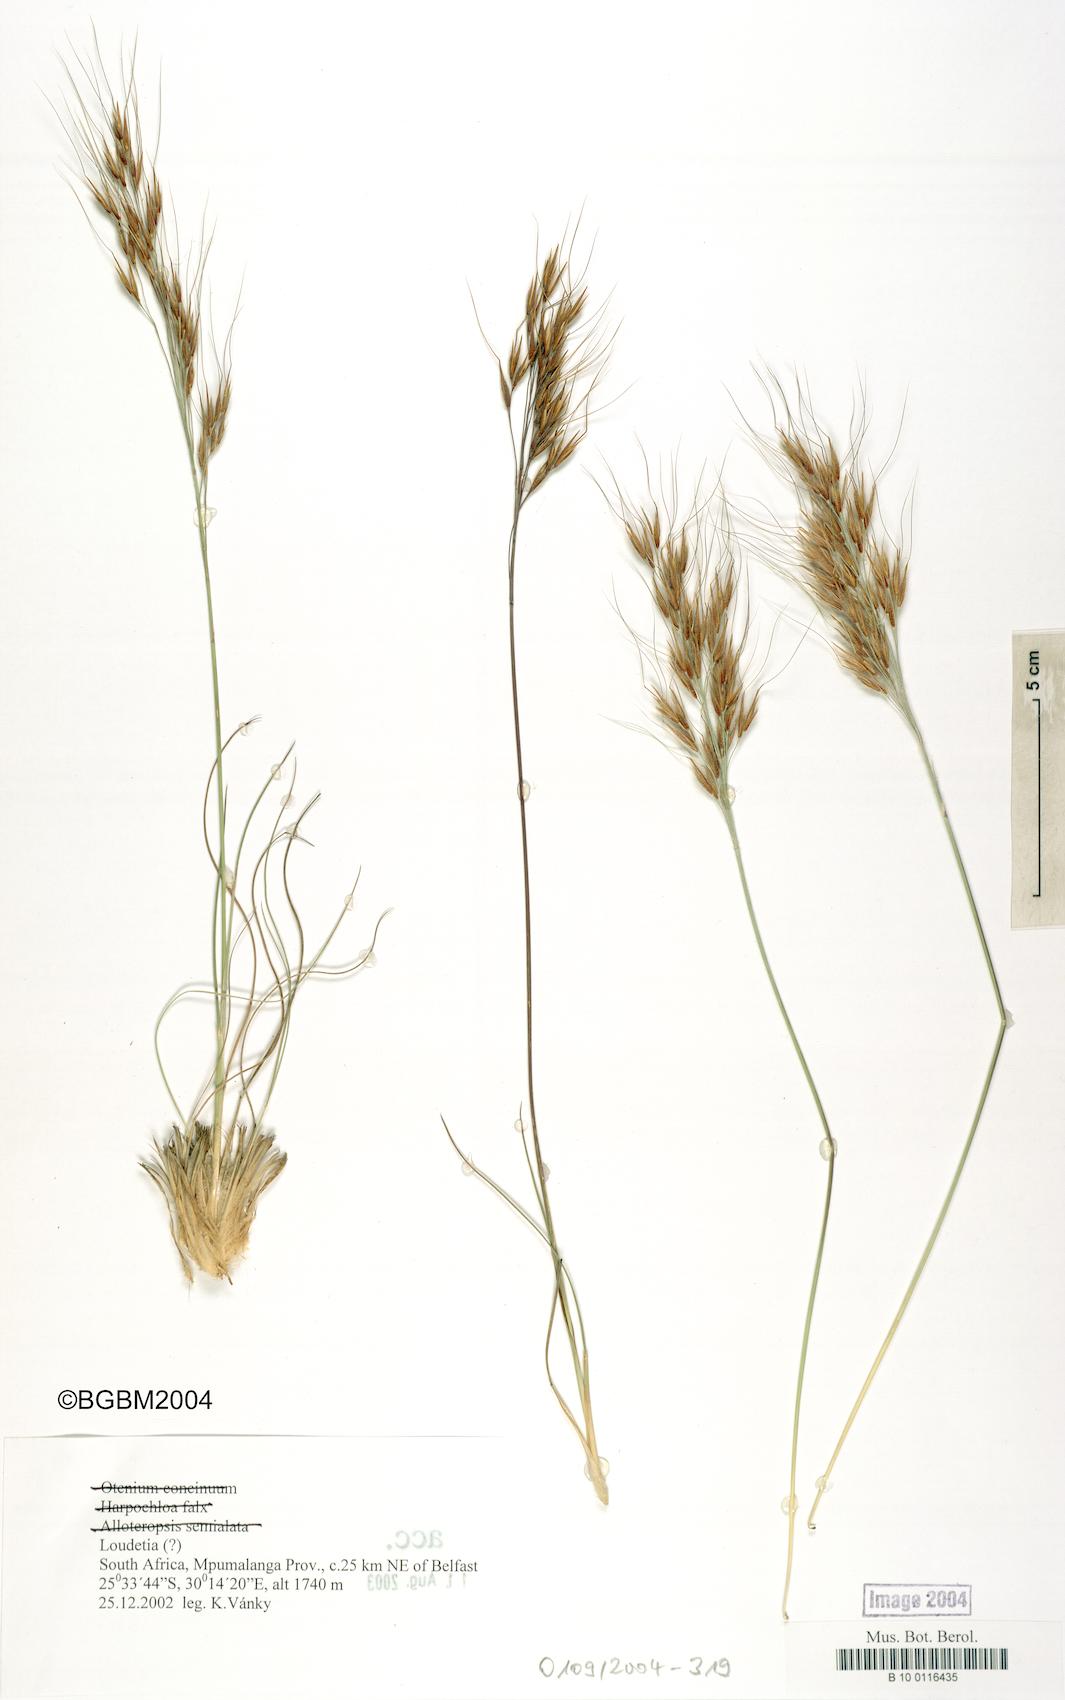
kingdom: Plantae
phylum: Tracheophyta
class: Liliopsida
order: Poales
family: Poaceae
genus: Loudetia
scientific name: Loudetia
